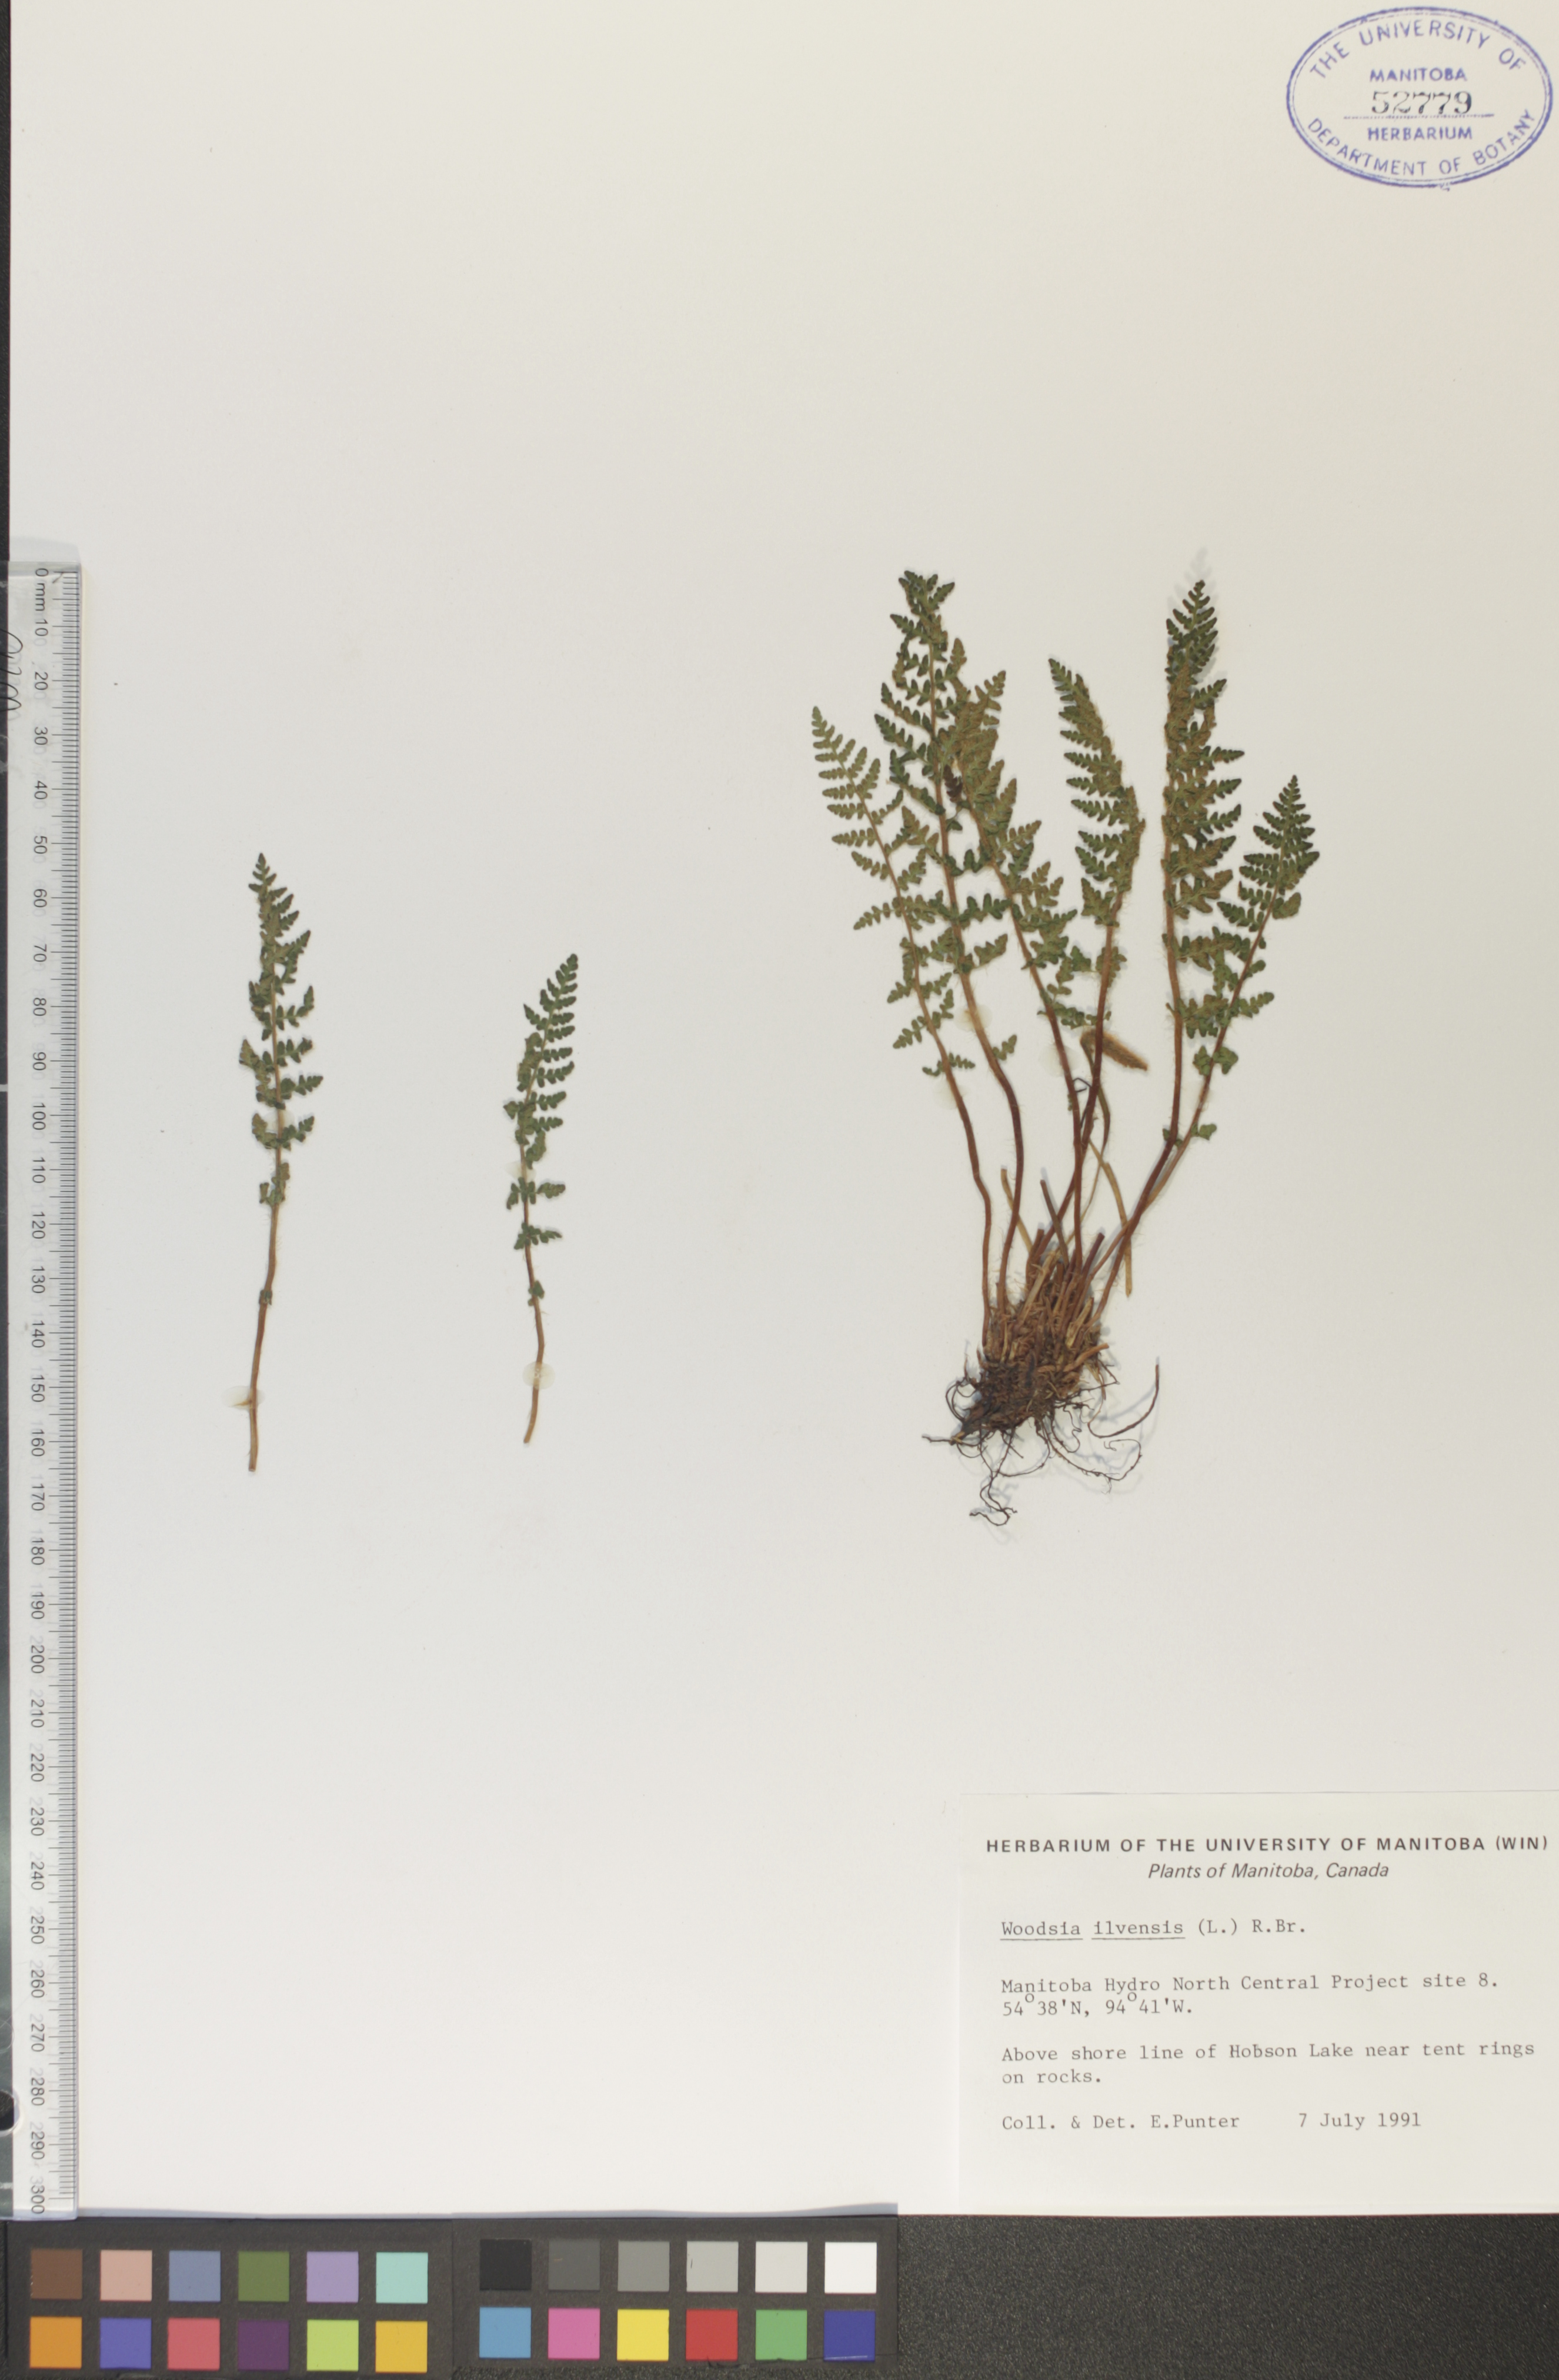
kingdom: Plantae
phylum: Tracheophyta
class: Polypodiopsida
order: Polypodiales
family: Woodsiaceae
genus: Woodsia
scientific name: Woodsia ilvensis
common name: Fragrant woodsia
